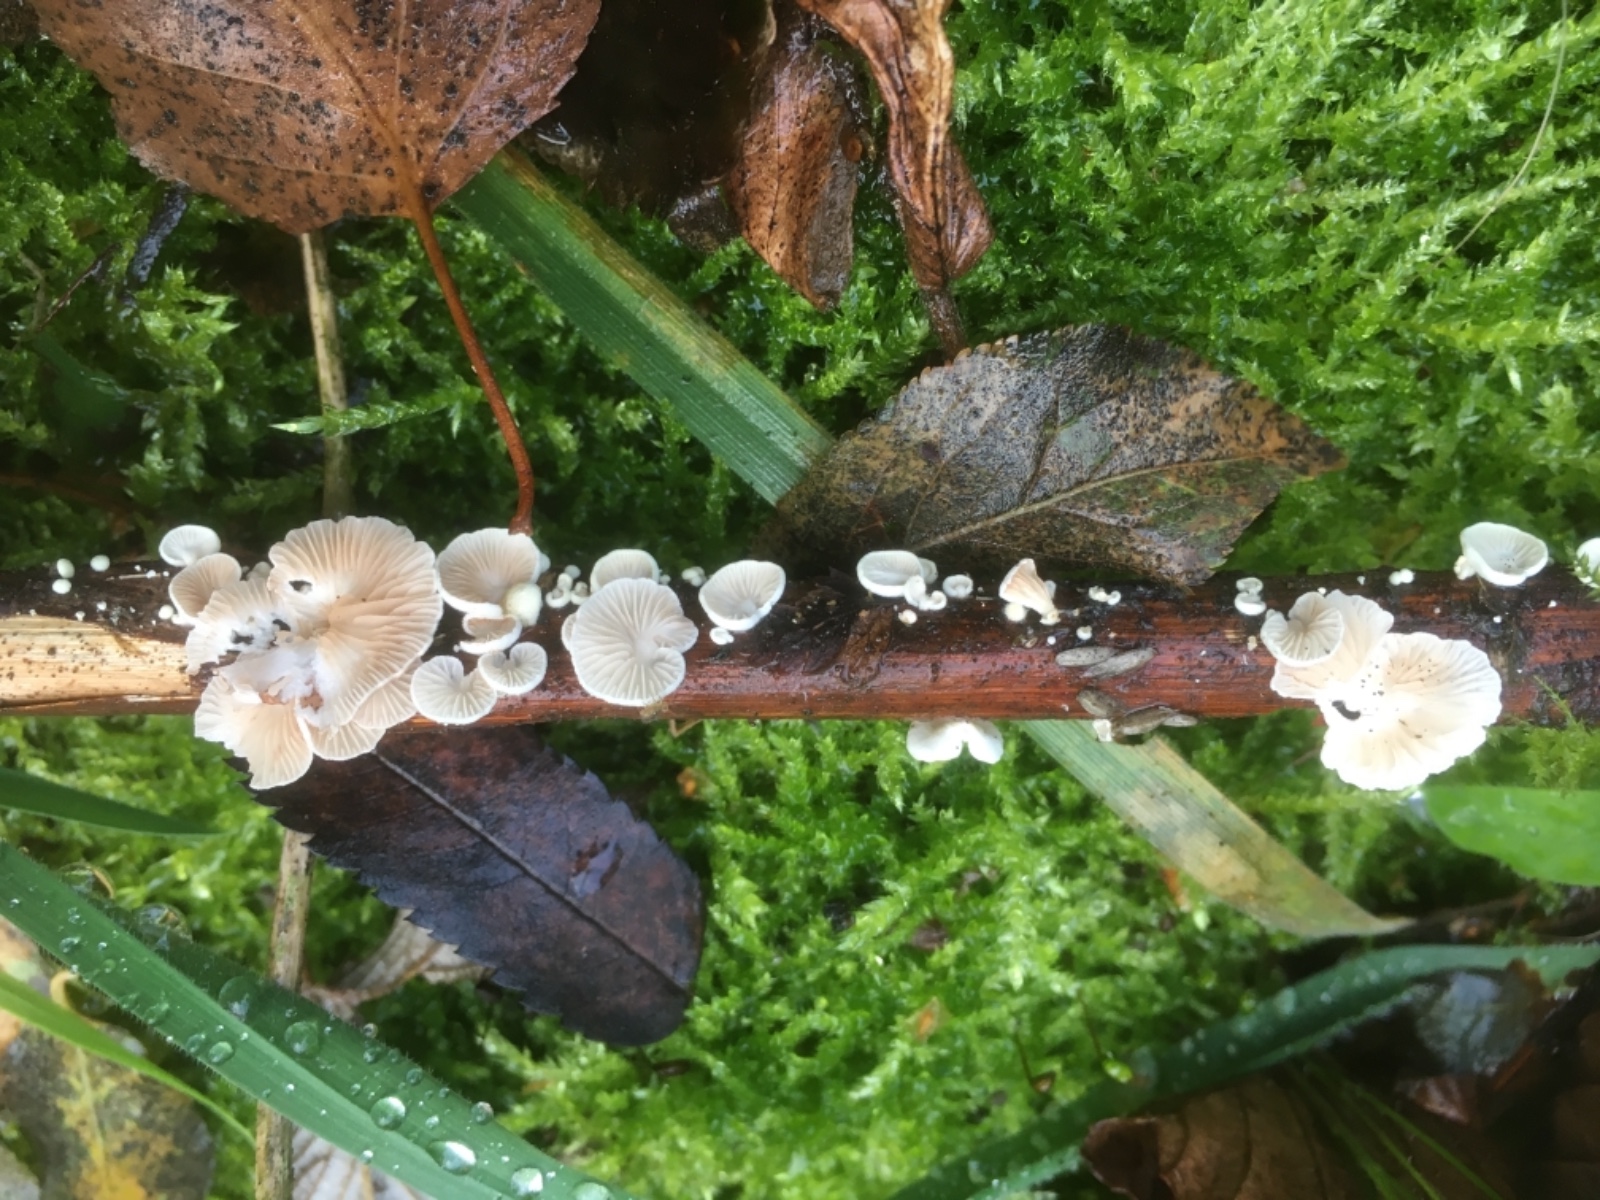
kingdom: Fungi
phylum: Basidiomycota
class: Agaricomycetes
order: Agaricales
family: Crepidotaceae
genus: Crepidotus
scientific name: Crepidotus
